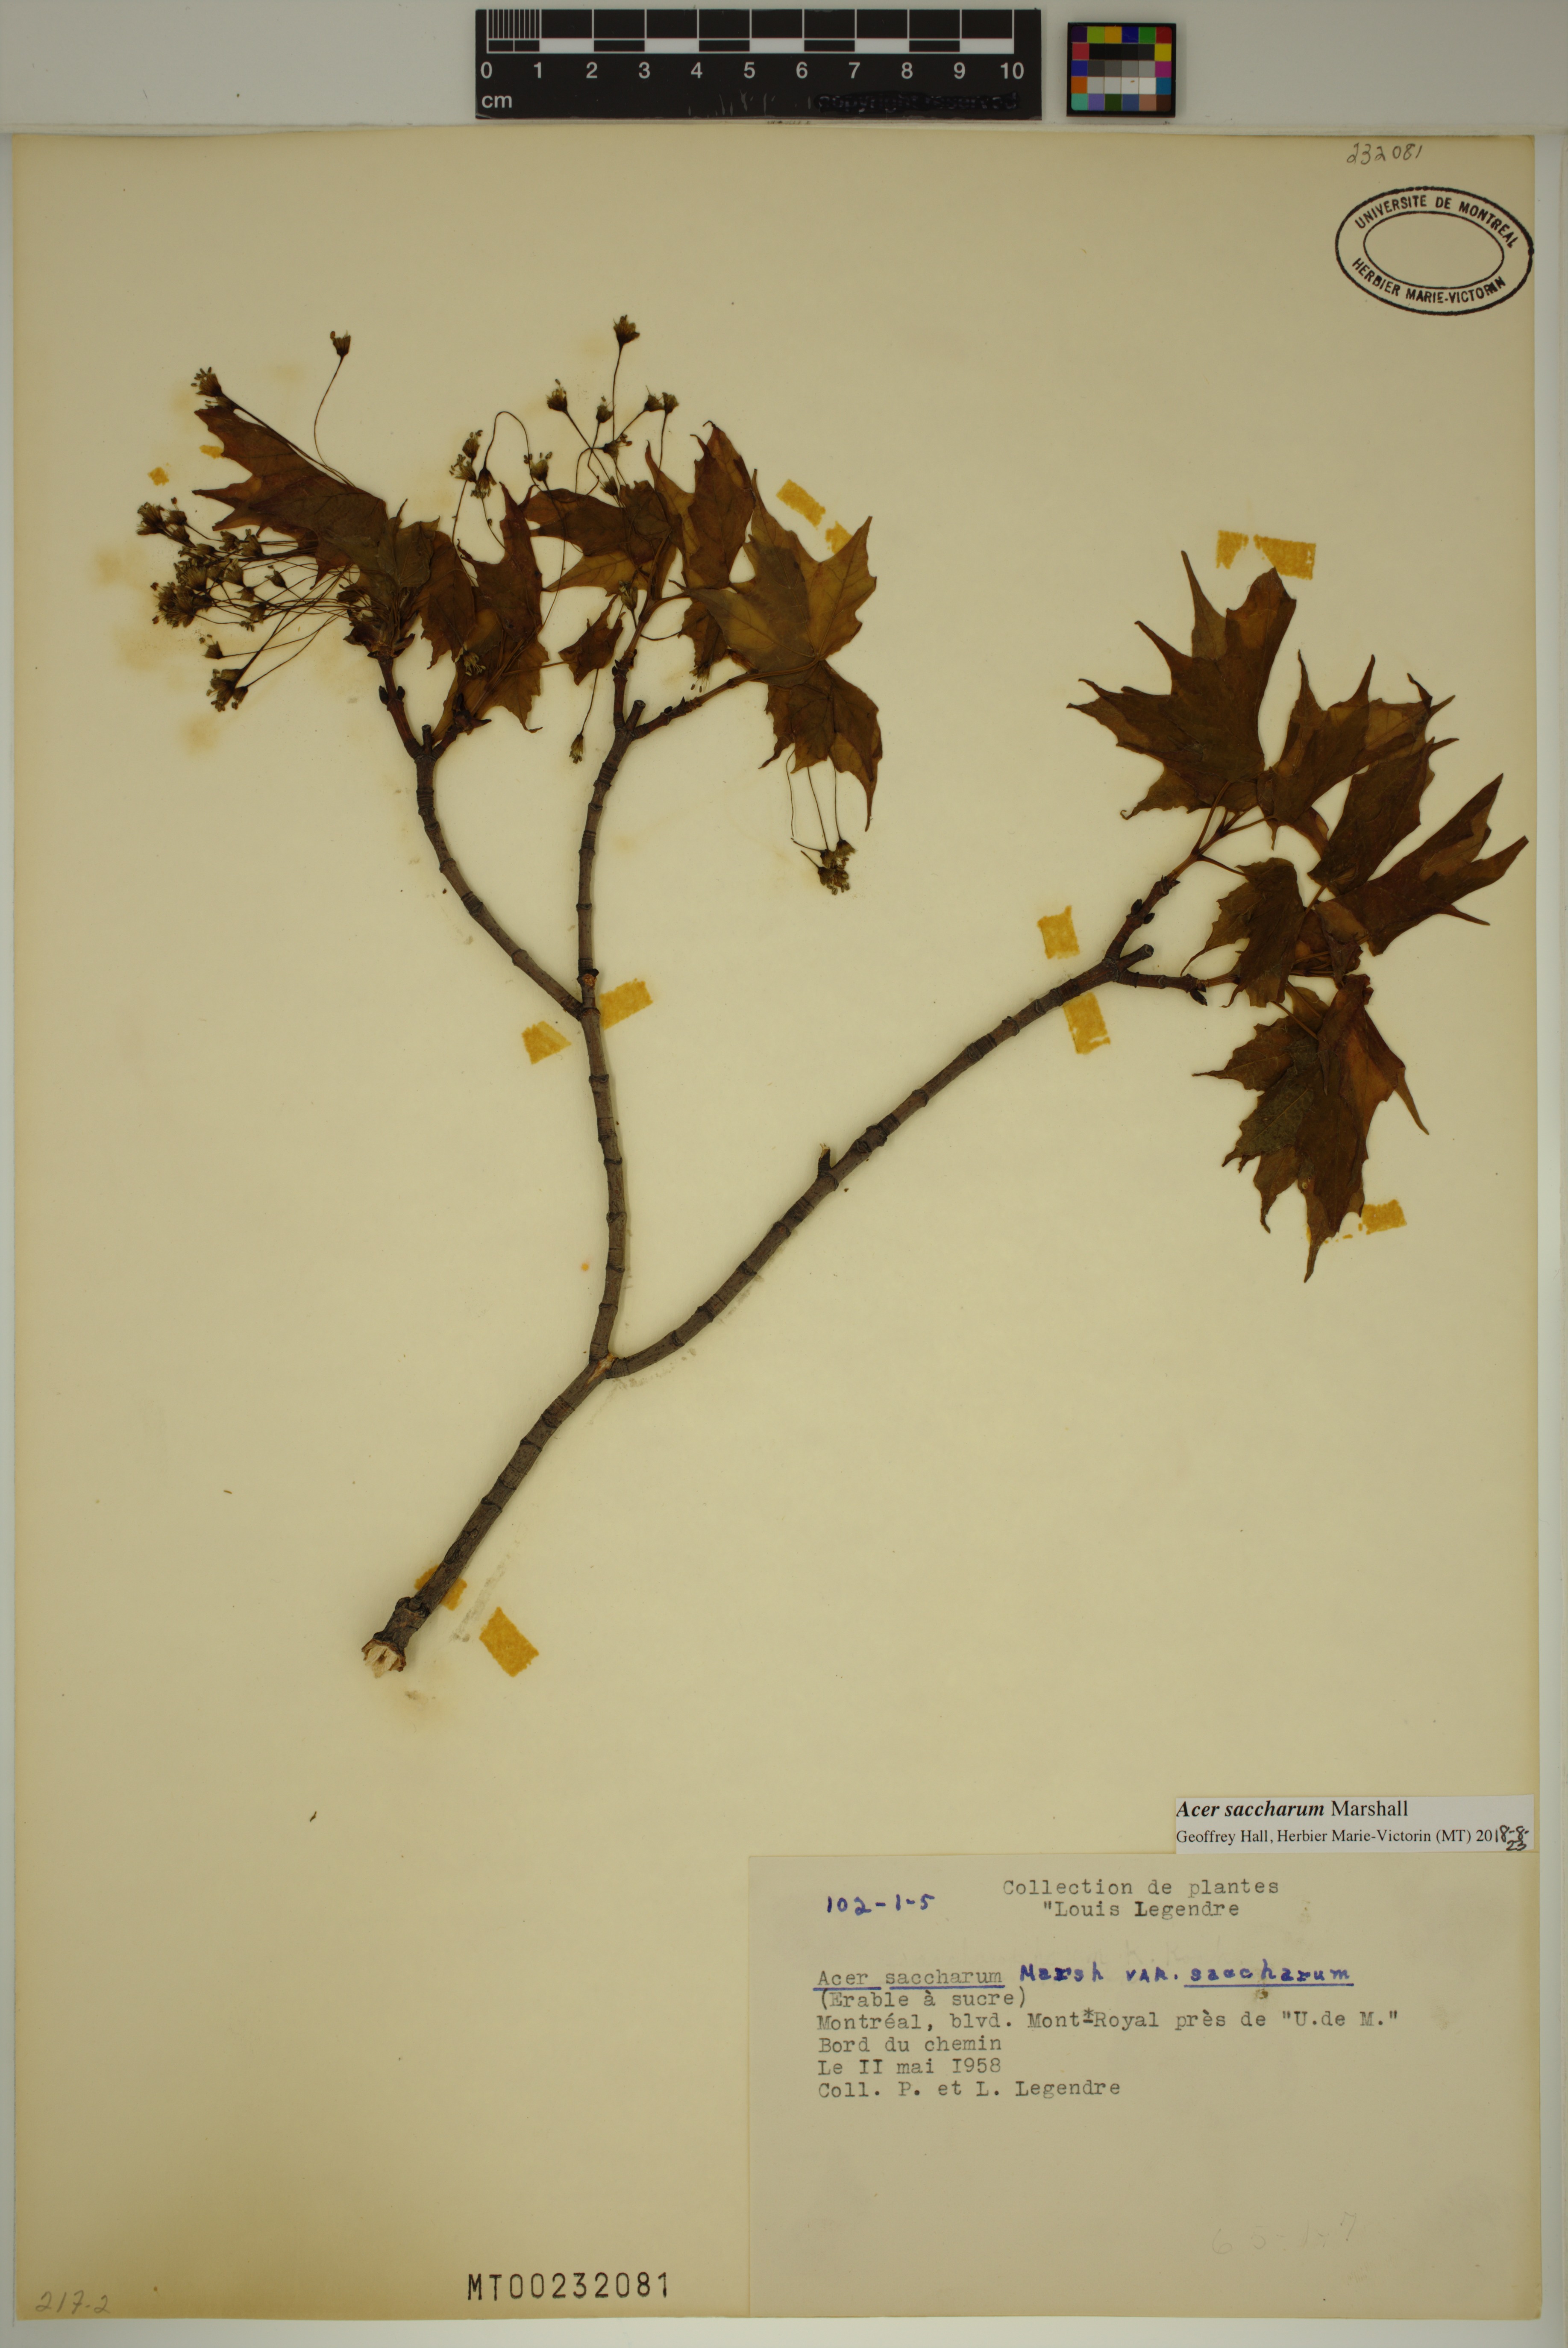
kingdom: Plantae
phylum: Tracheophyta
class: Magnoliopsida
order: Sapindales
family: Sapindaceae
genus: Acer
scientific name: Acer saccharum
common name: Sugar maple
